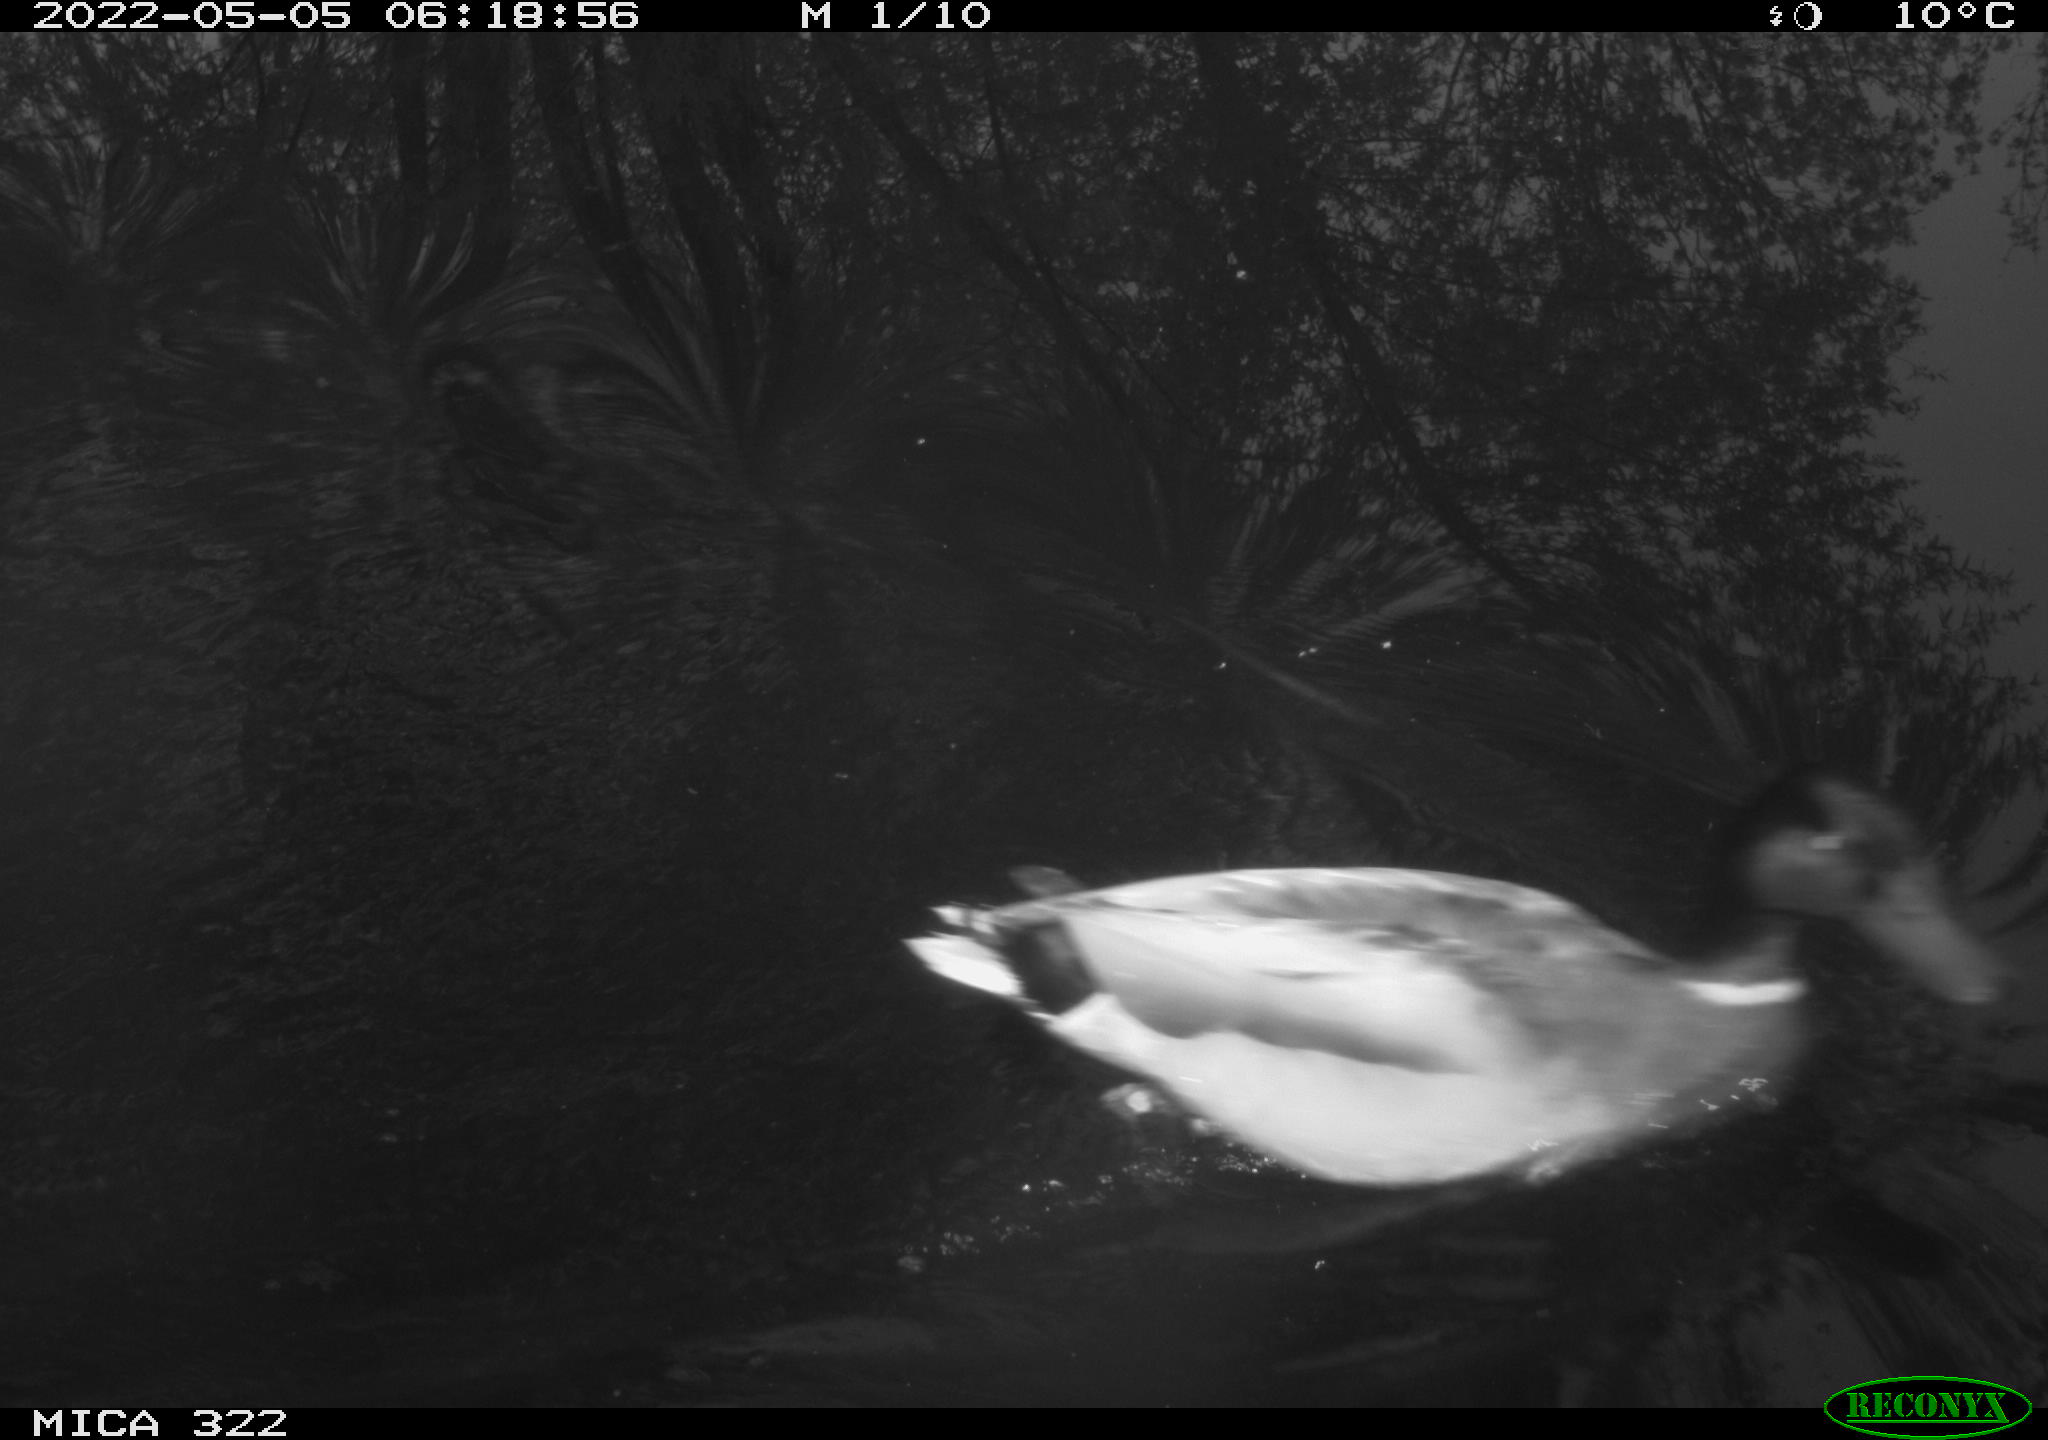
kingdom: Animalia
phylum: Chordata
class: Aves
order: Anseriformes
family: Anatidae
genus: Anas
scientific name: Anas platyrhynchos
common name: Mallard
